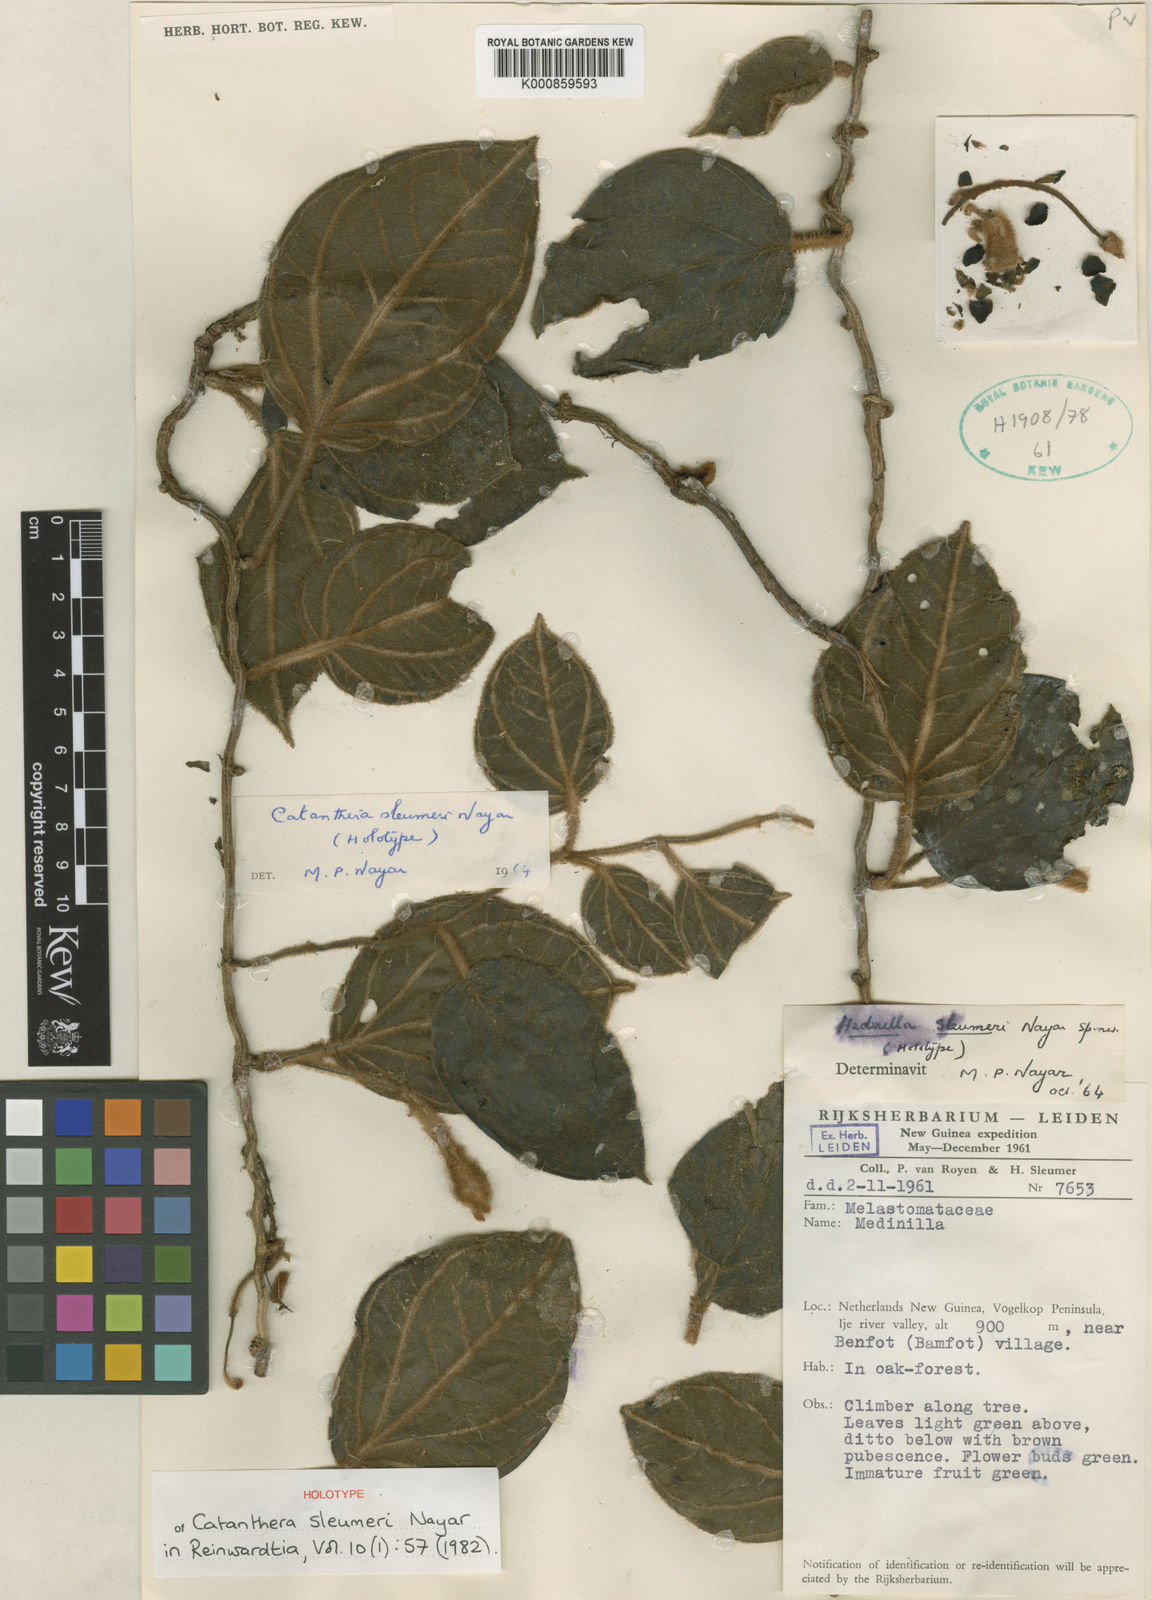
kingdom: Plantae
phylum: Tracheophyta
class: Magnoliopsida
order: Myrtales
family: Melastomataceae
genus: Catanthera
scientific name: Catanthera sleumeri
